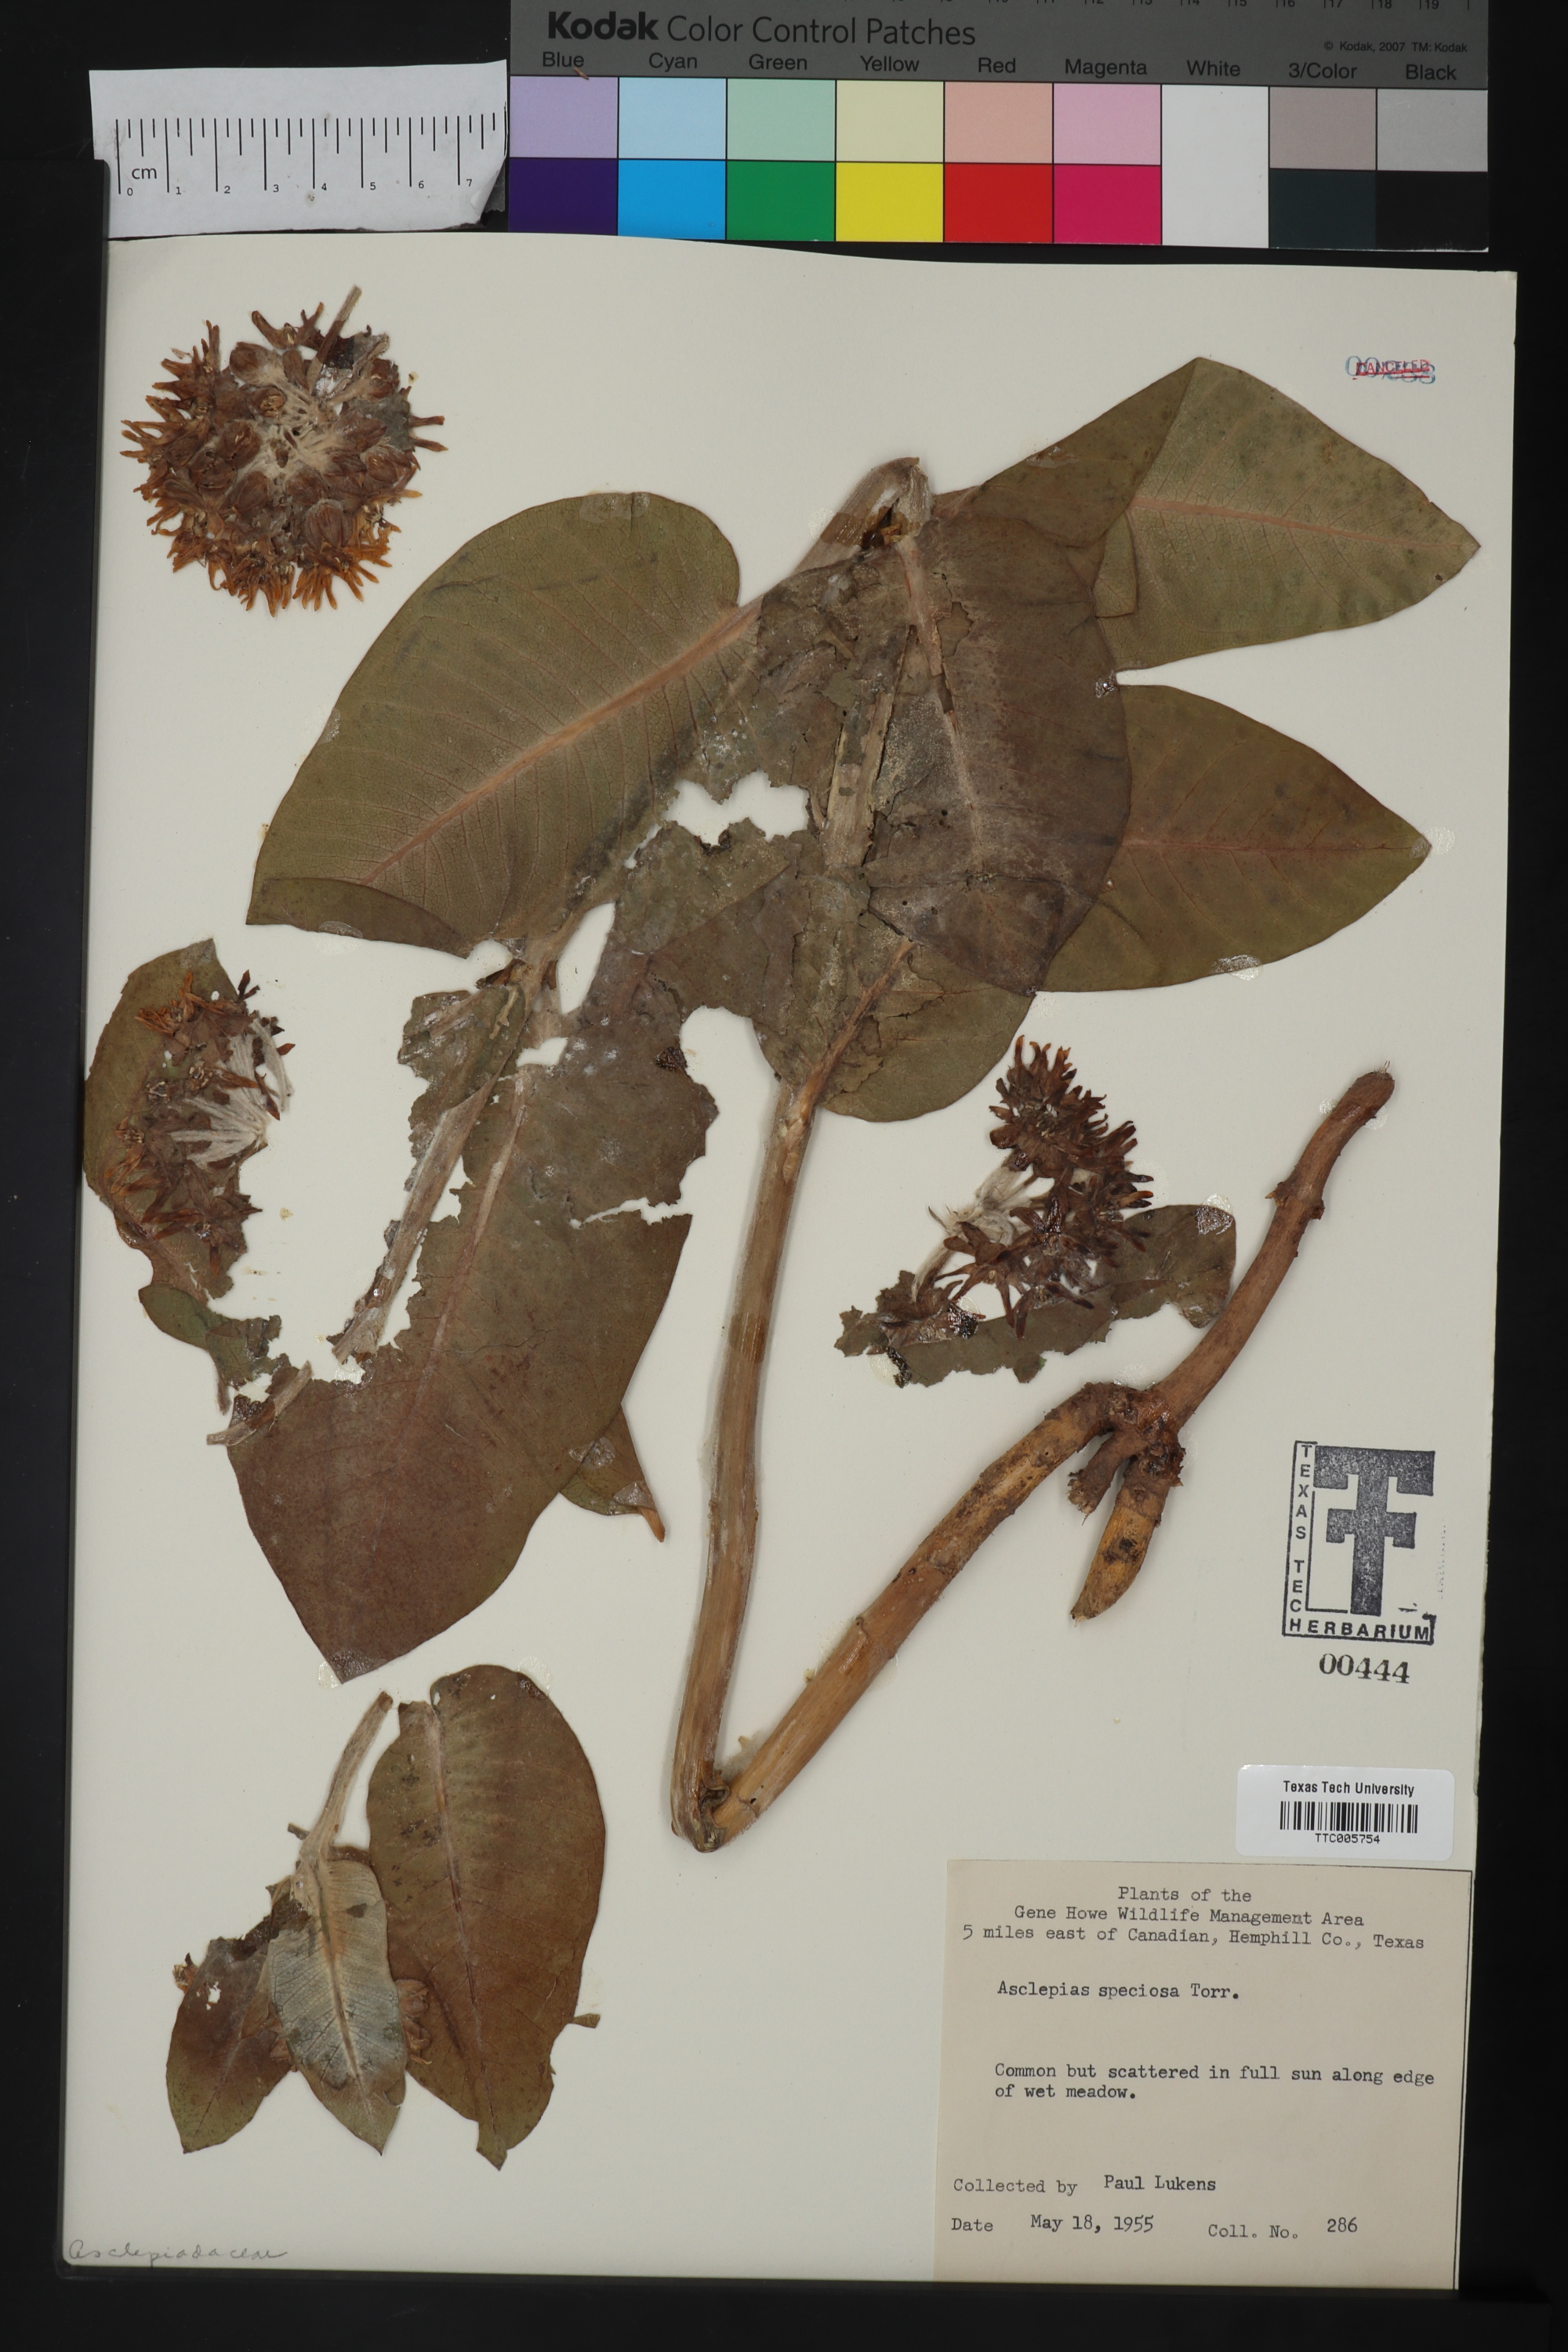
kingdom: Plantae
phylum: Tracheophyta
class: Magnoliopsida
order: Gentianales
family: Apocynaceae
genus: Asclepias
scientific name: Asclepias speciosa
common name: Showy milkweed
